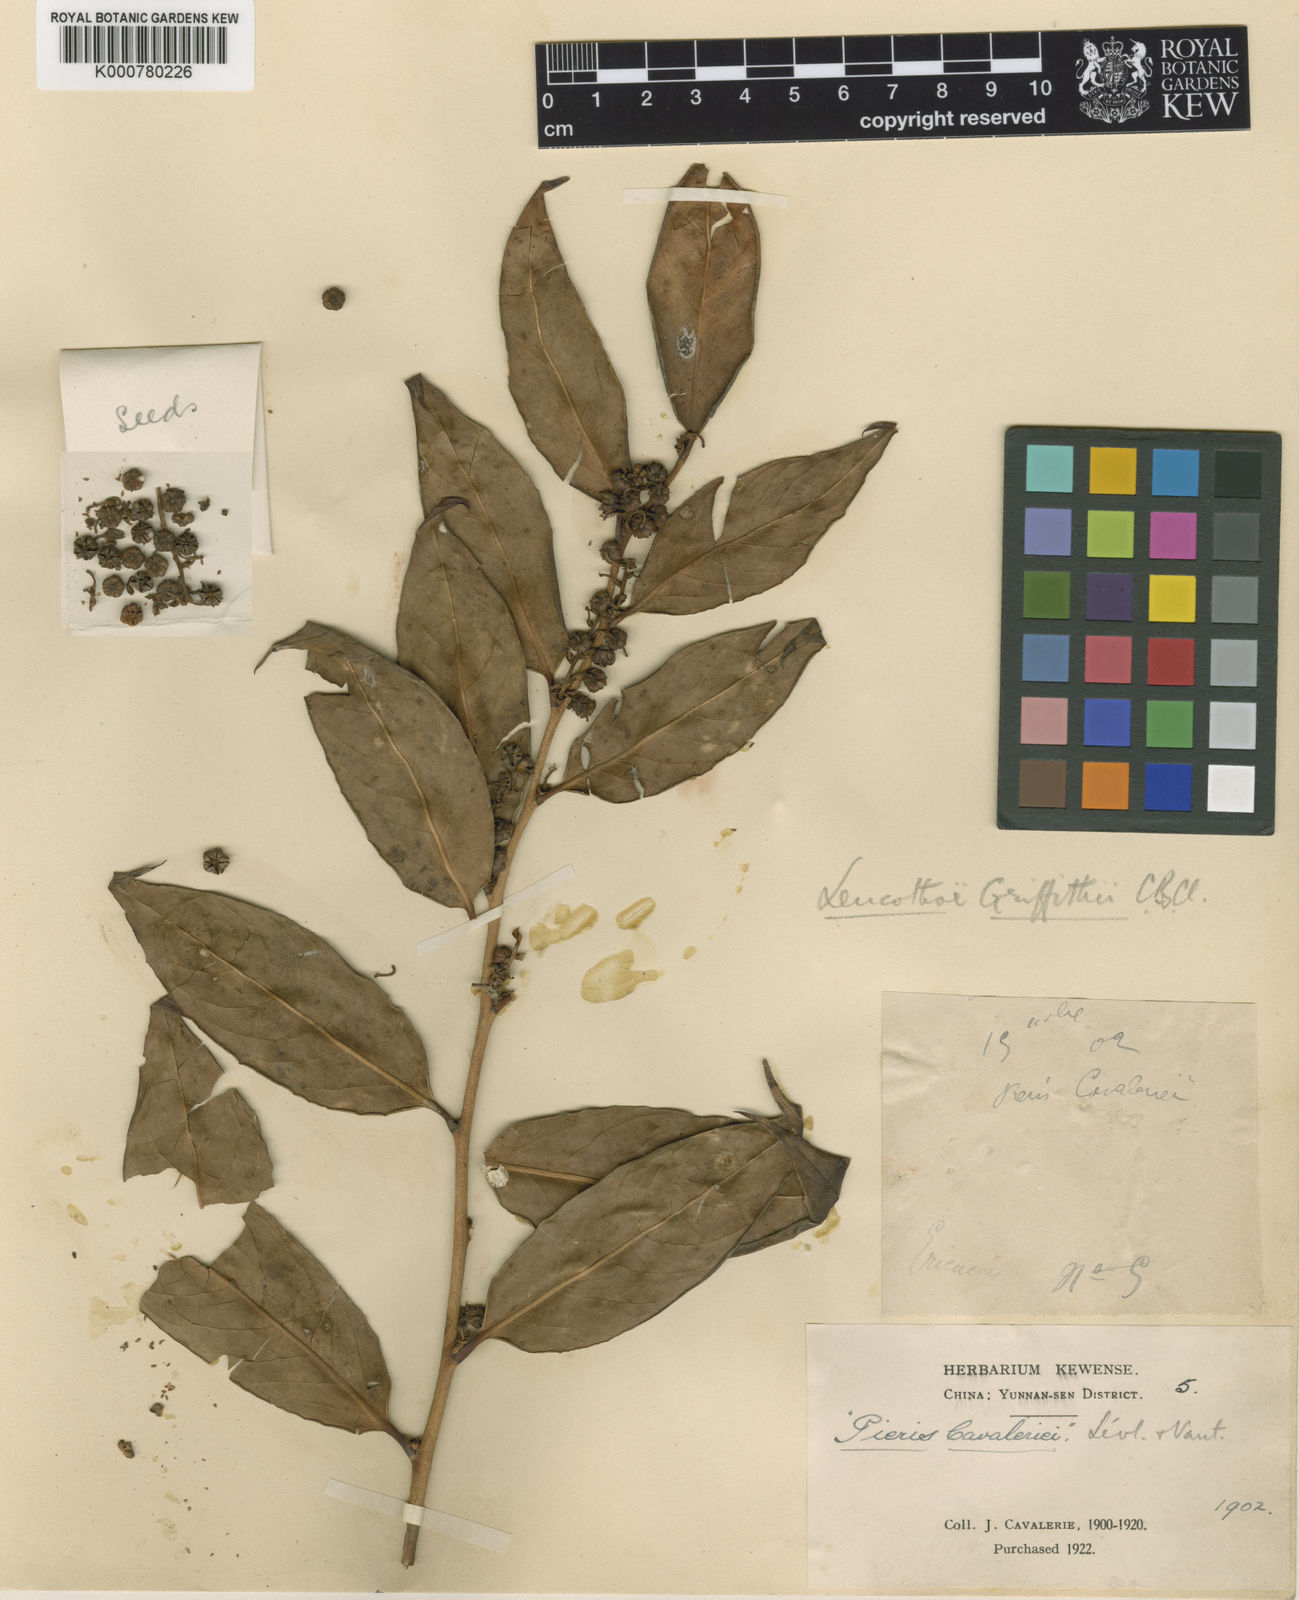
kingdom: Plantae
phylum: Tracheophyta
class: Magnoliopsida
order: Ericales
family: Ericaceae
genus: Leucothoe
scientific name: Leucothoe griffithiana
